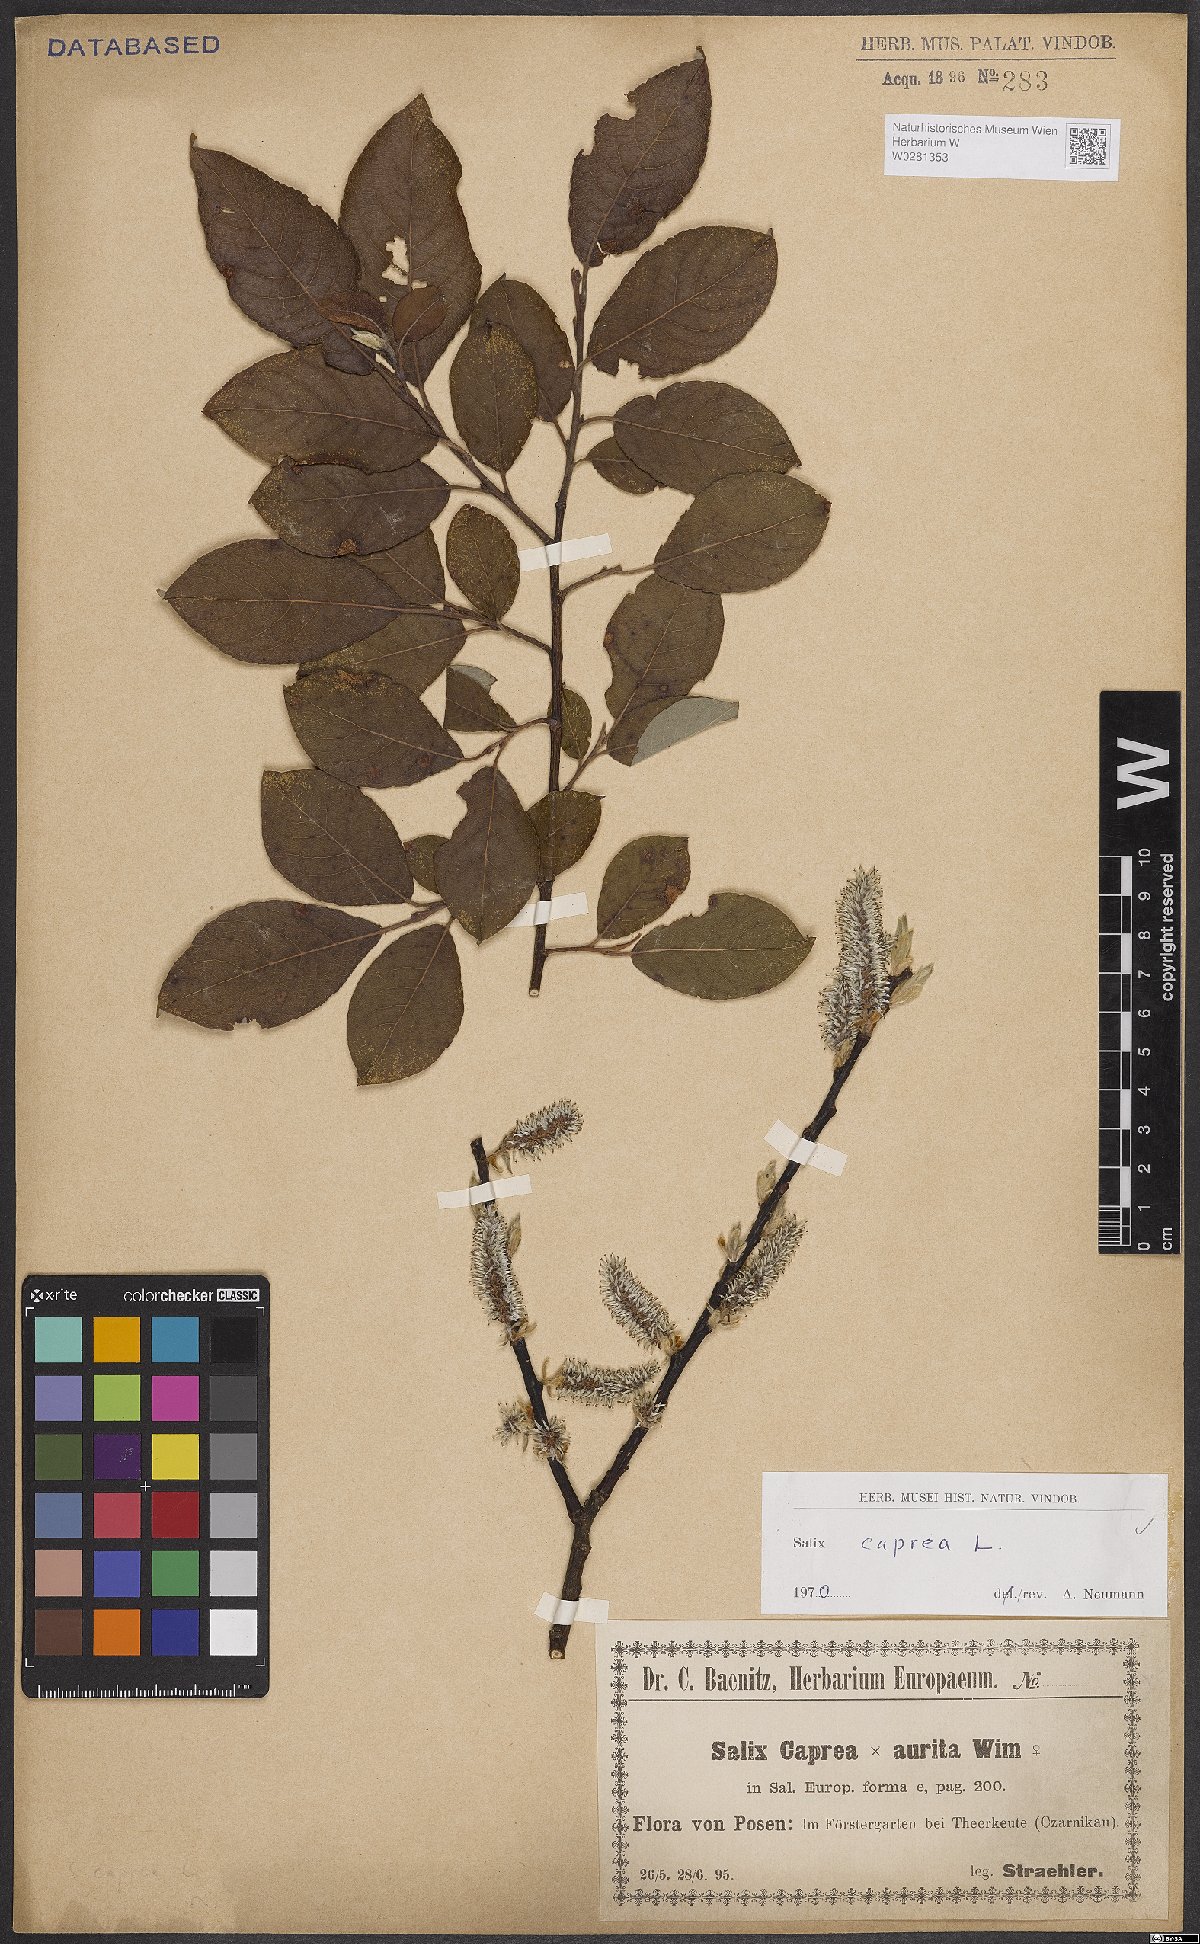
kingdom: Plantae
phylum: Tracheophyta
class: Magnoliopsida
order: Malpighiales
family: Salicaceae
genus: Salix
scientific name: Salix caprea
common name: Goat willow
